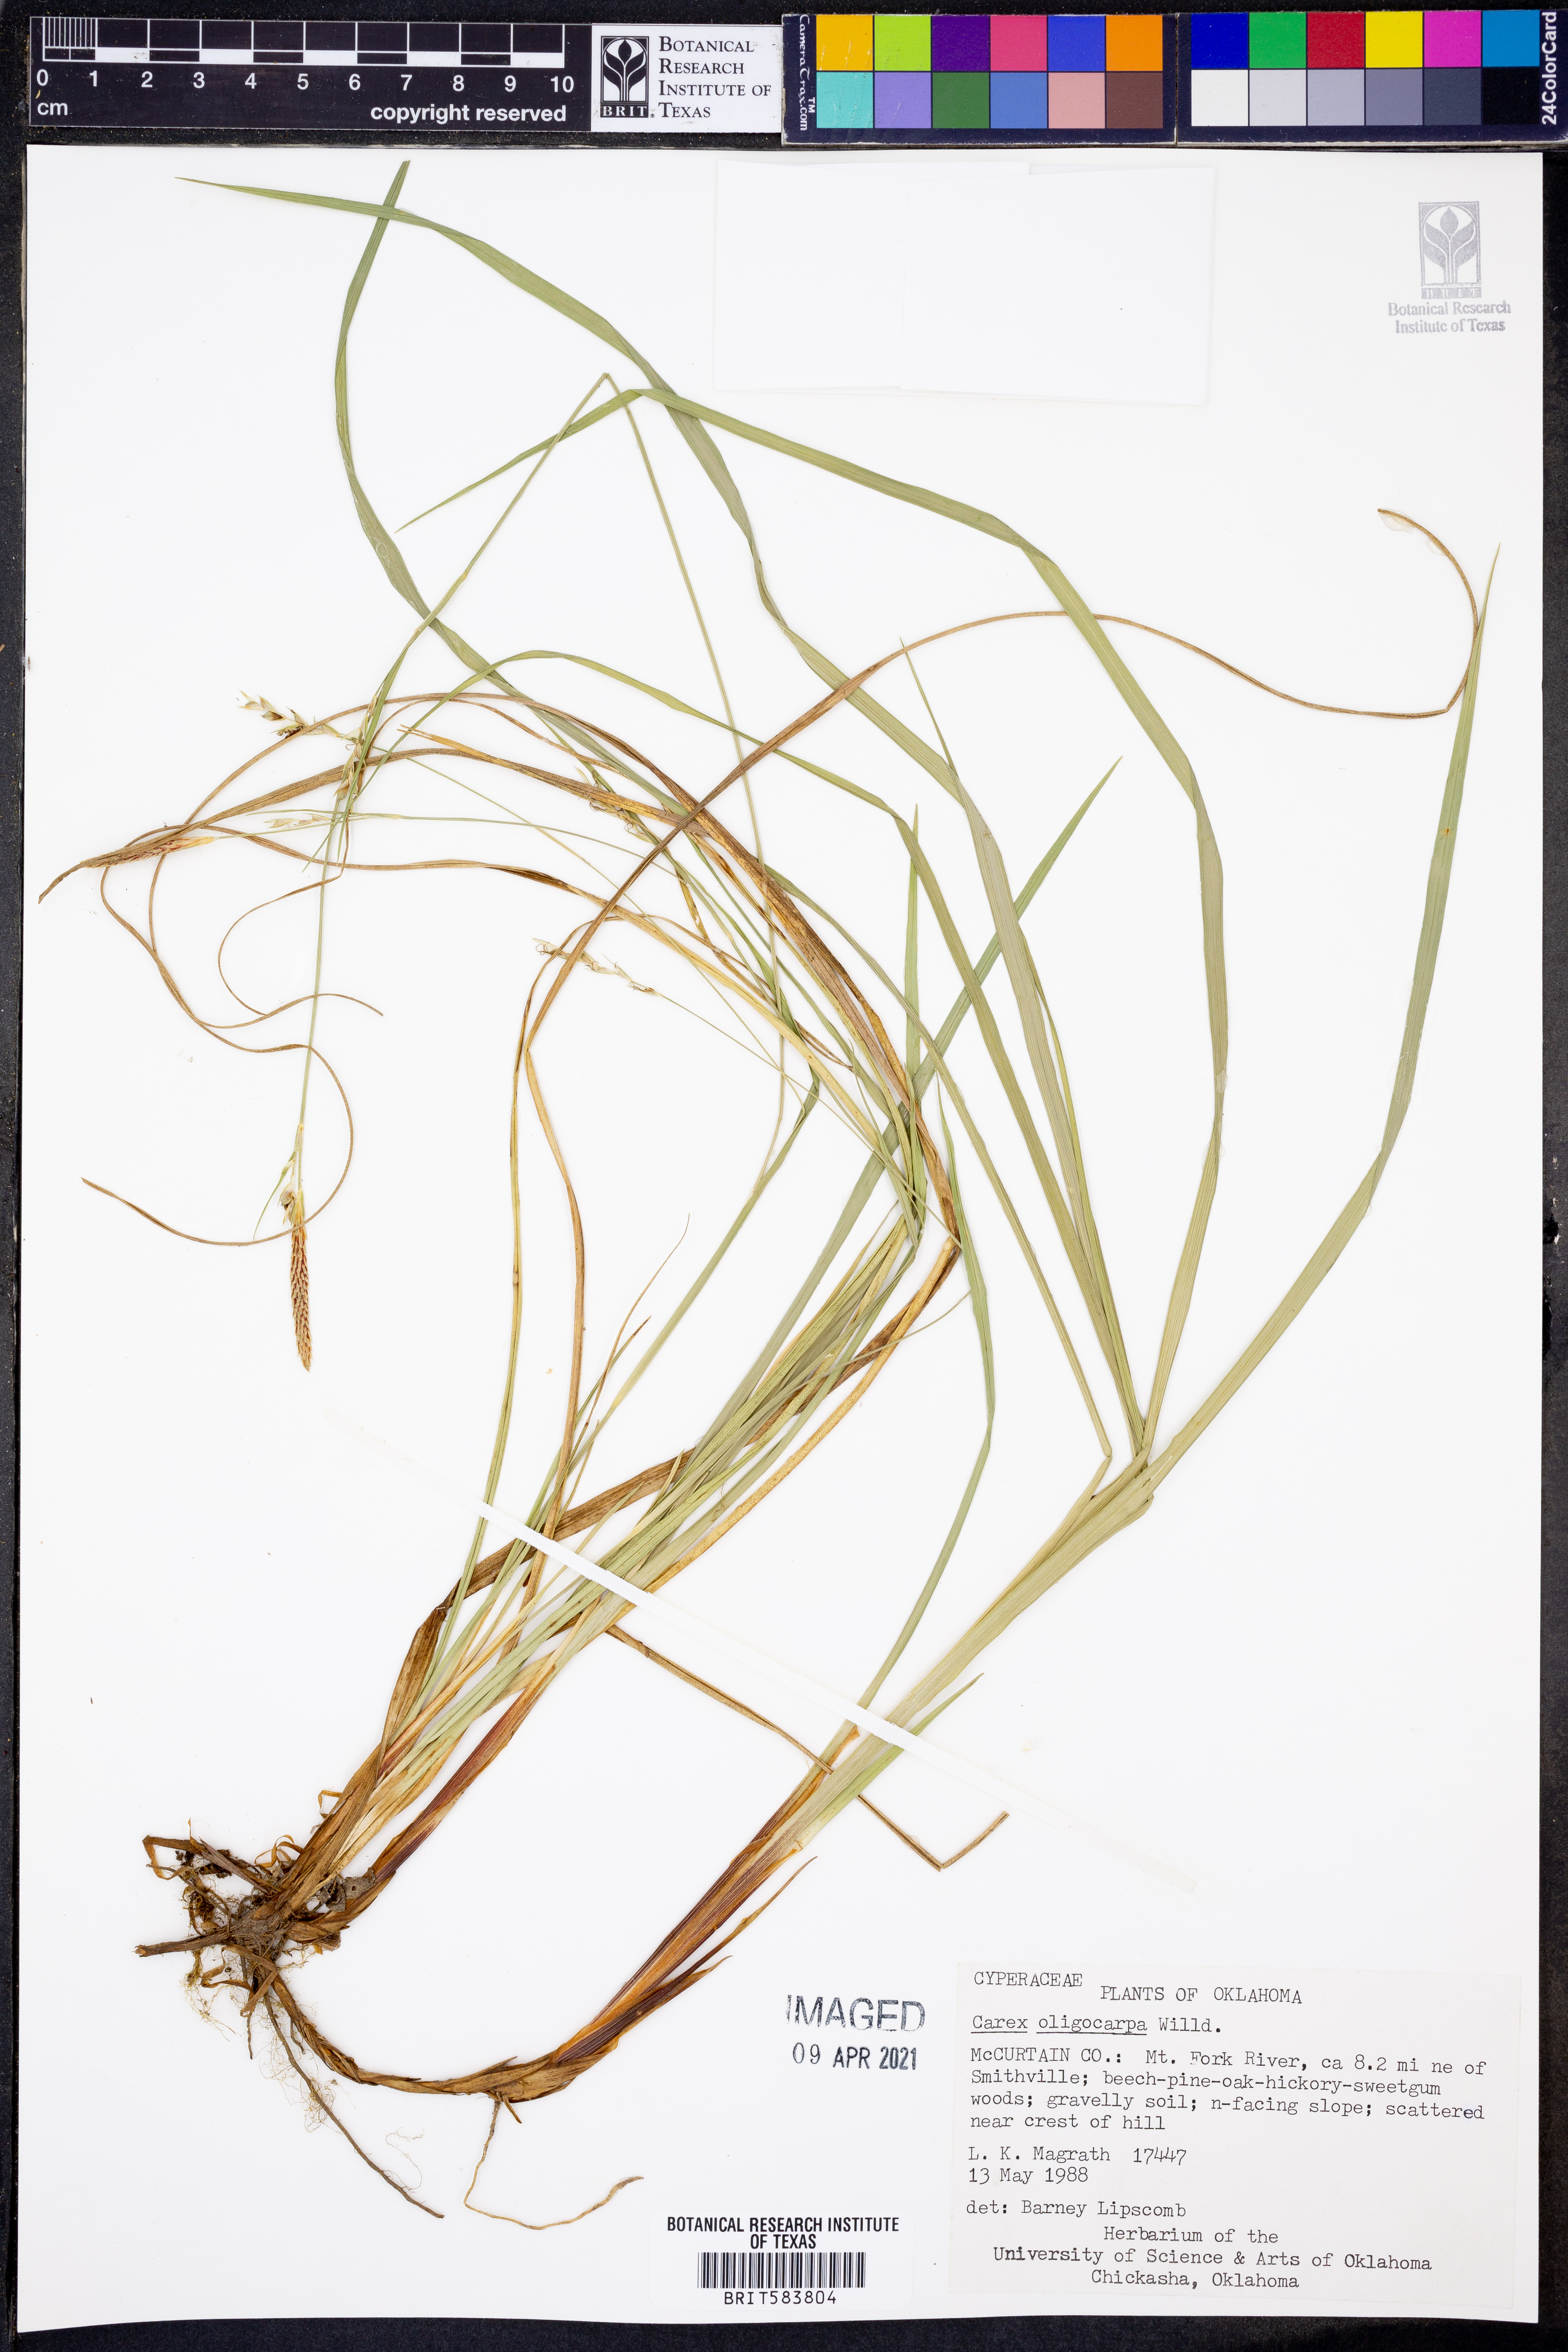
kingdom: Plantae
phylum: Tracheophyta
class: Liliopsida
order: Poales
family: Cyperaceae
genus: Carex
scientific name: Carex oligocarpa
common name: Eastern few-fruited sedge
